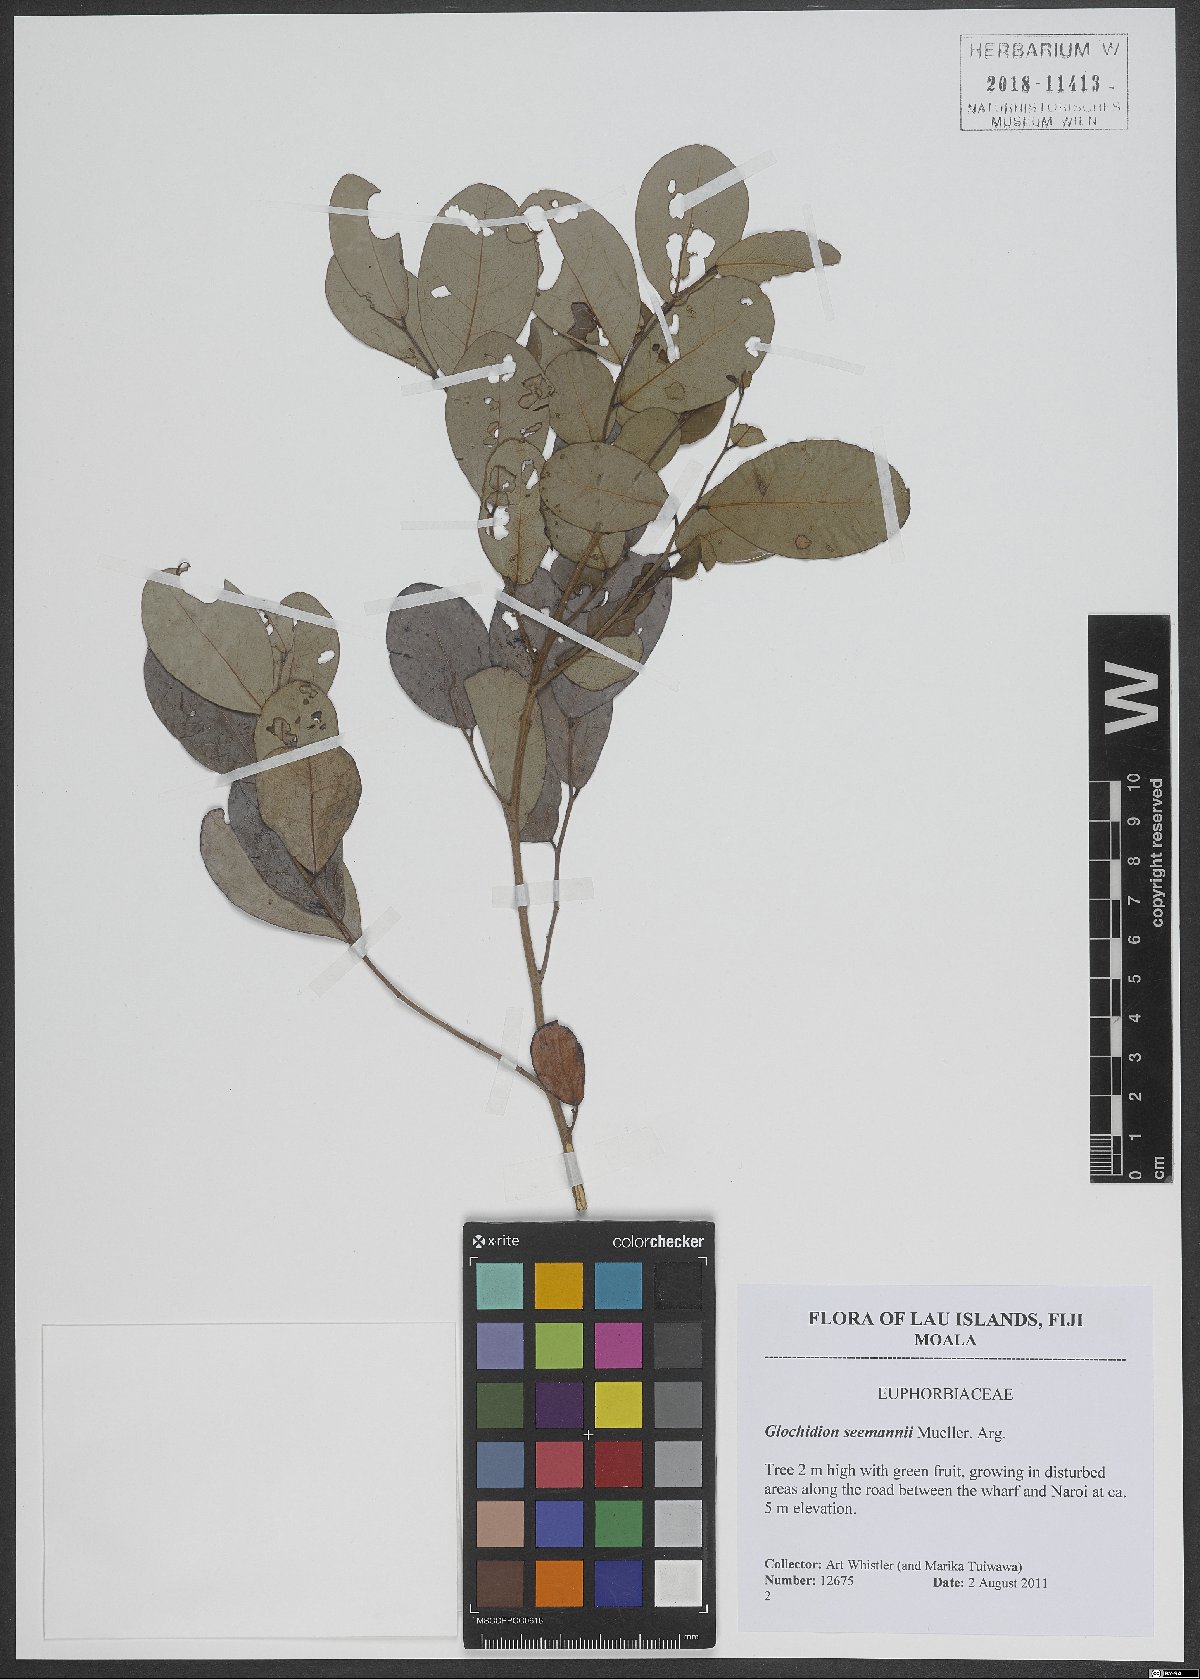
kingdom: Plantae
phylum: Tracheophyta
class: Magnoliopsida
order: Malpighiales
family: Phyllanthaceae
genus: Glochidion
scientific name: Glochidion seemannii
